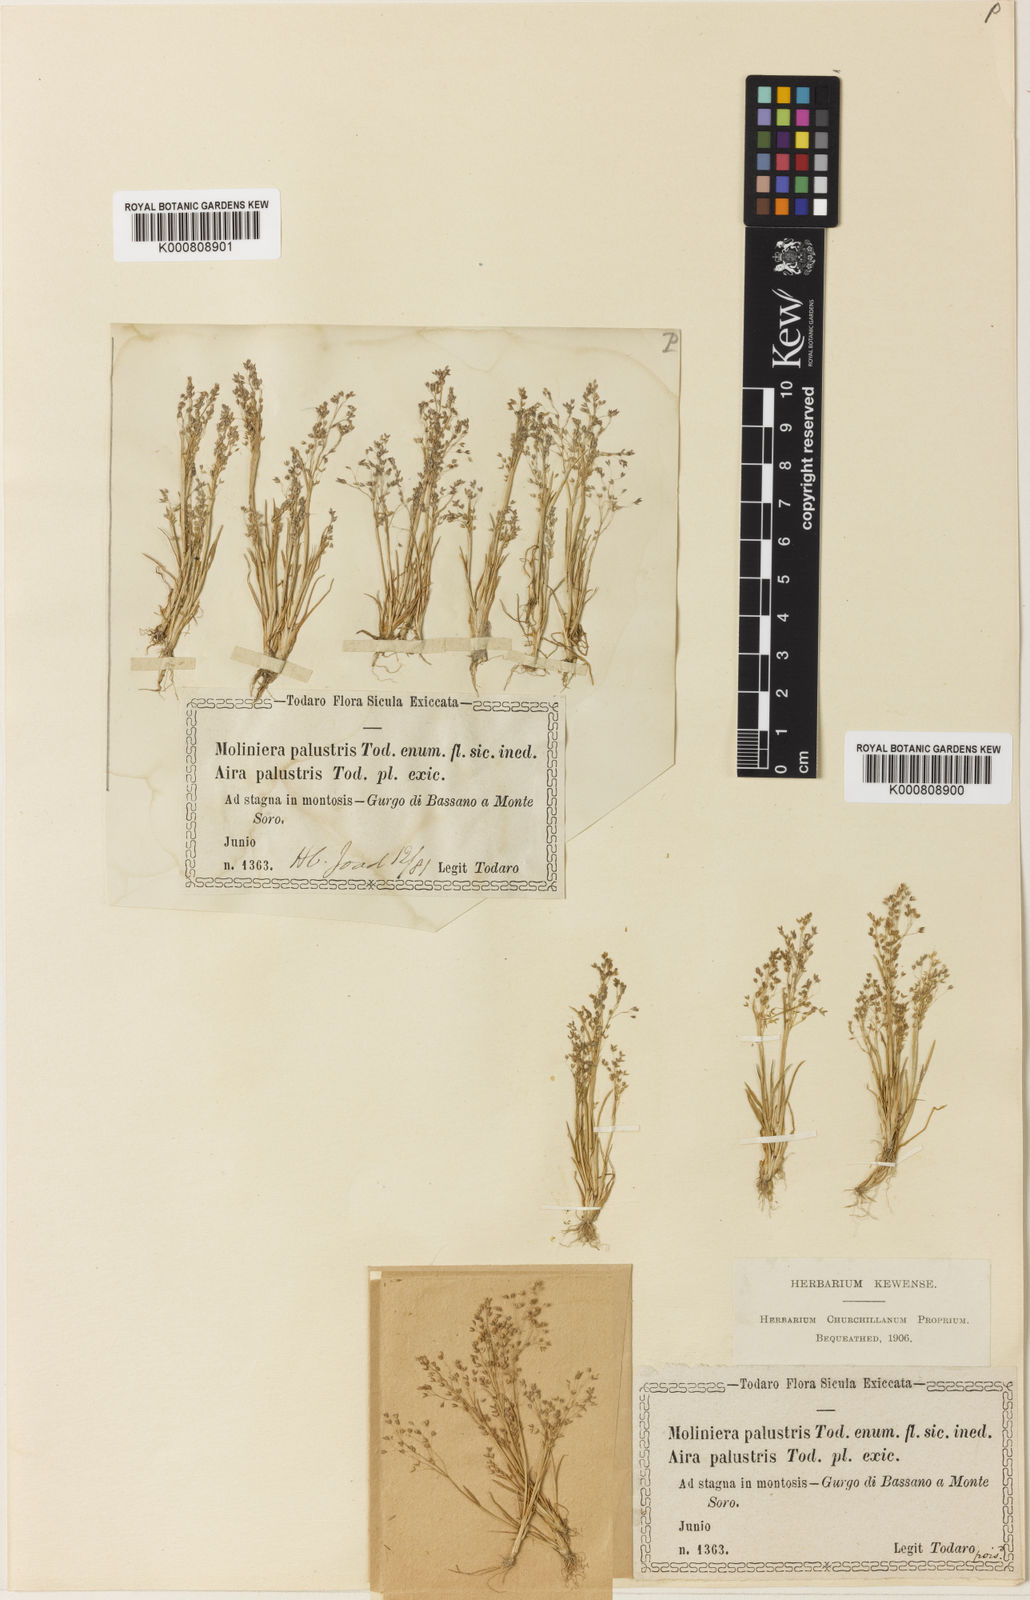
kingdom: Plantae
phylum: Tracheophyta
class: Liliopsida
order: Poales
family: Poaceae
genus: Molineriella
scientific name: Molineriella minuta
